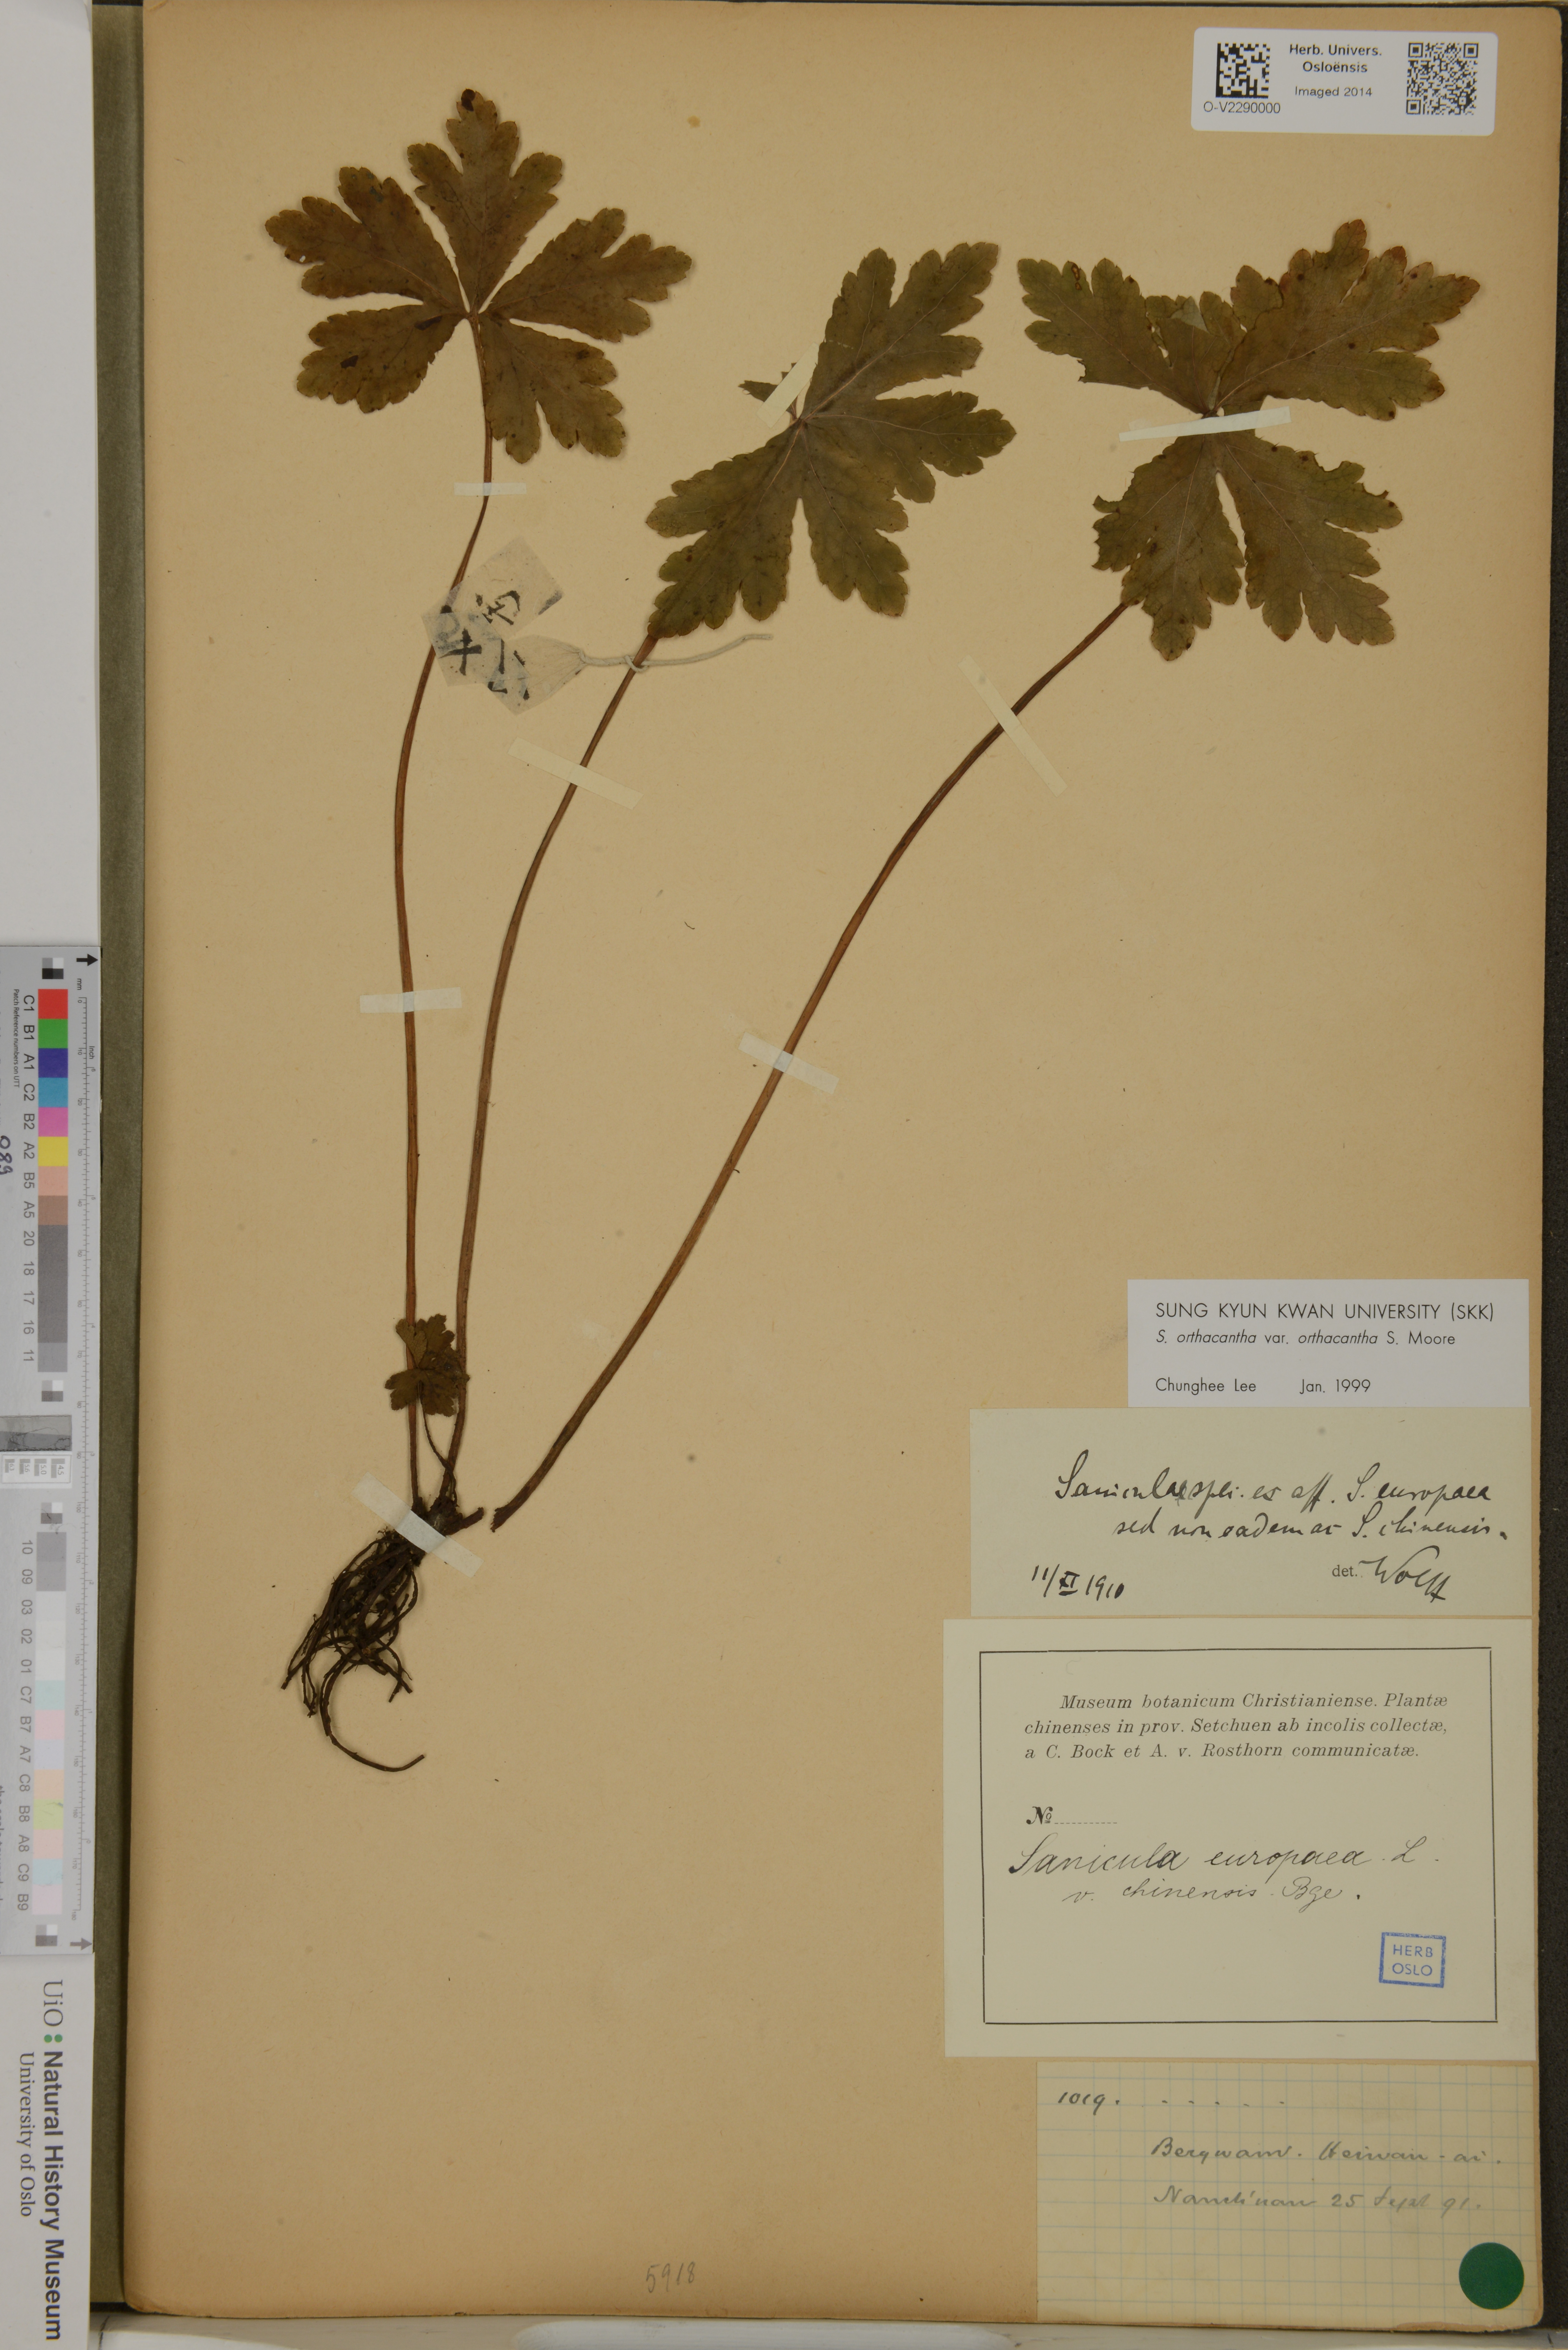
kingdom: Plantae
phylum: Tracheophyta
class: Magnoliopsida
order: Apiales
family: Apiaceae
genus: Sanicula
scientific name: Sanicula europaea
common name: Sanicle
